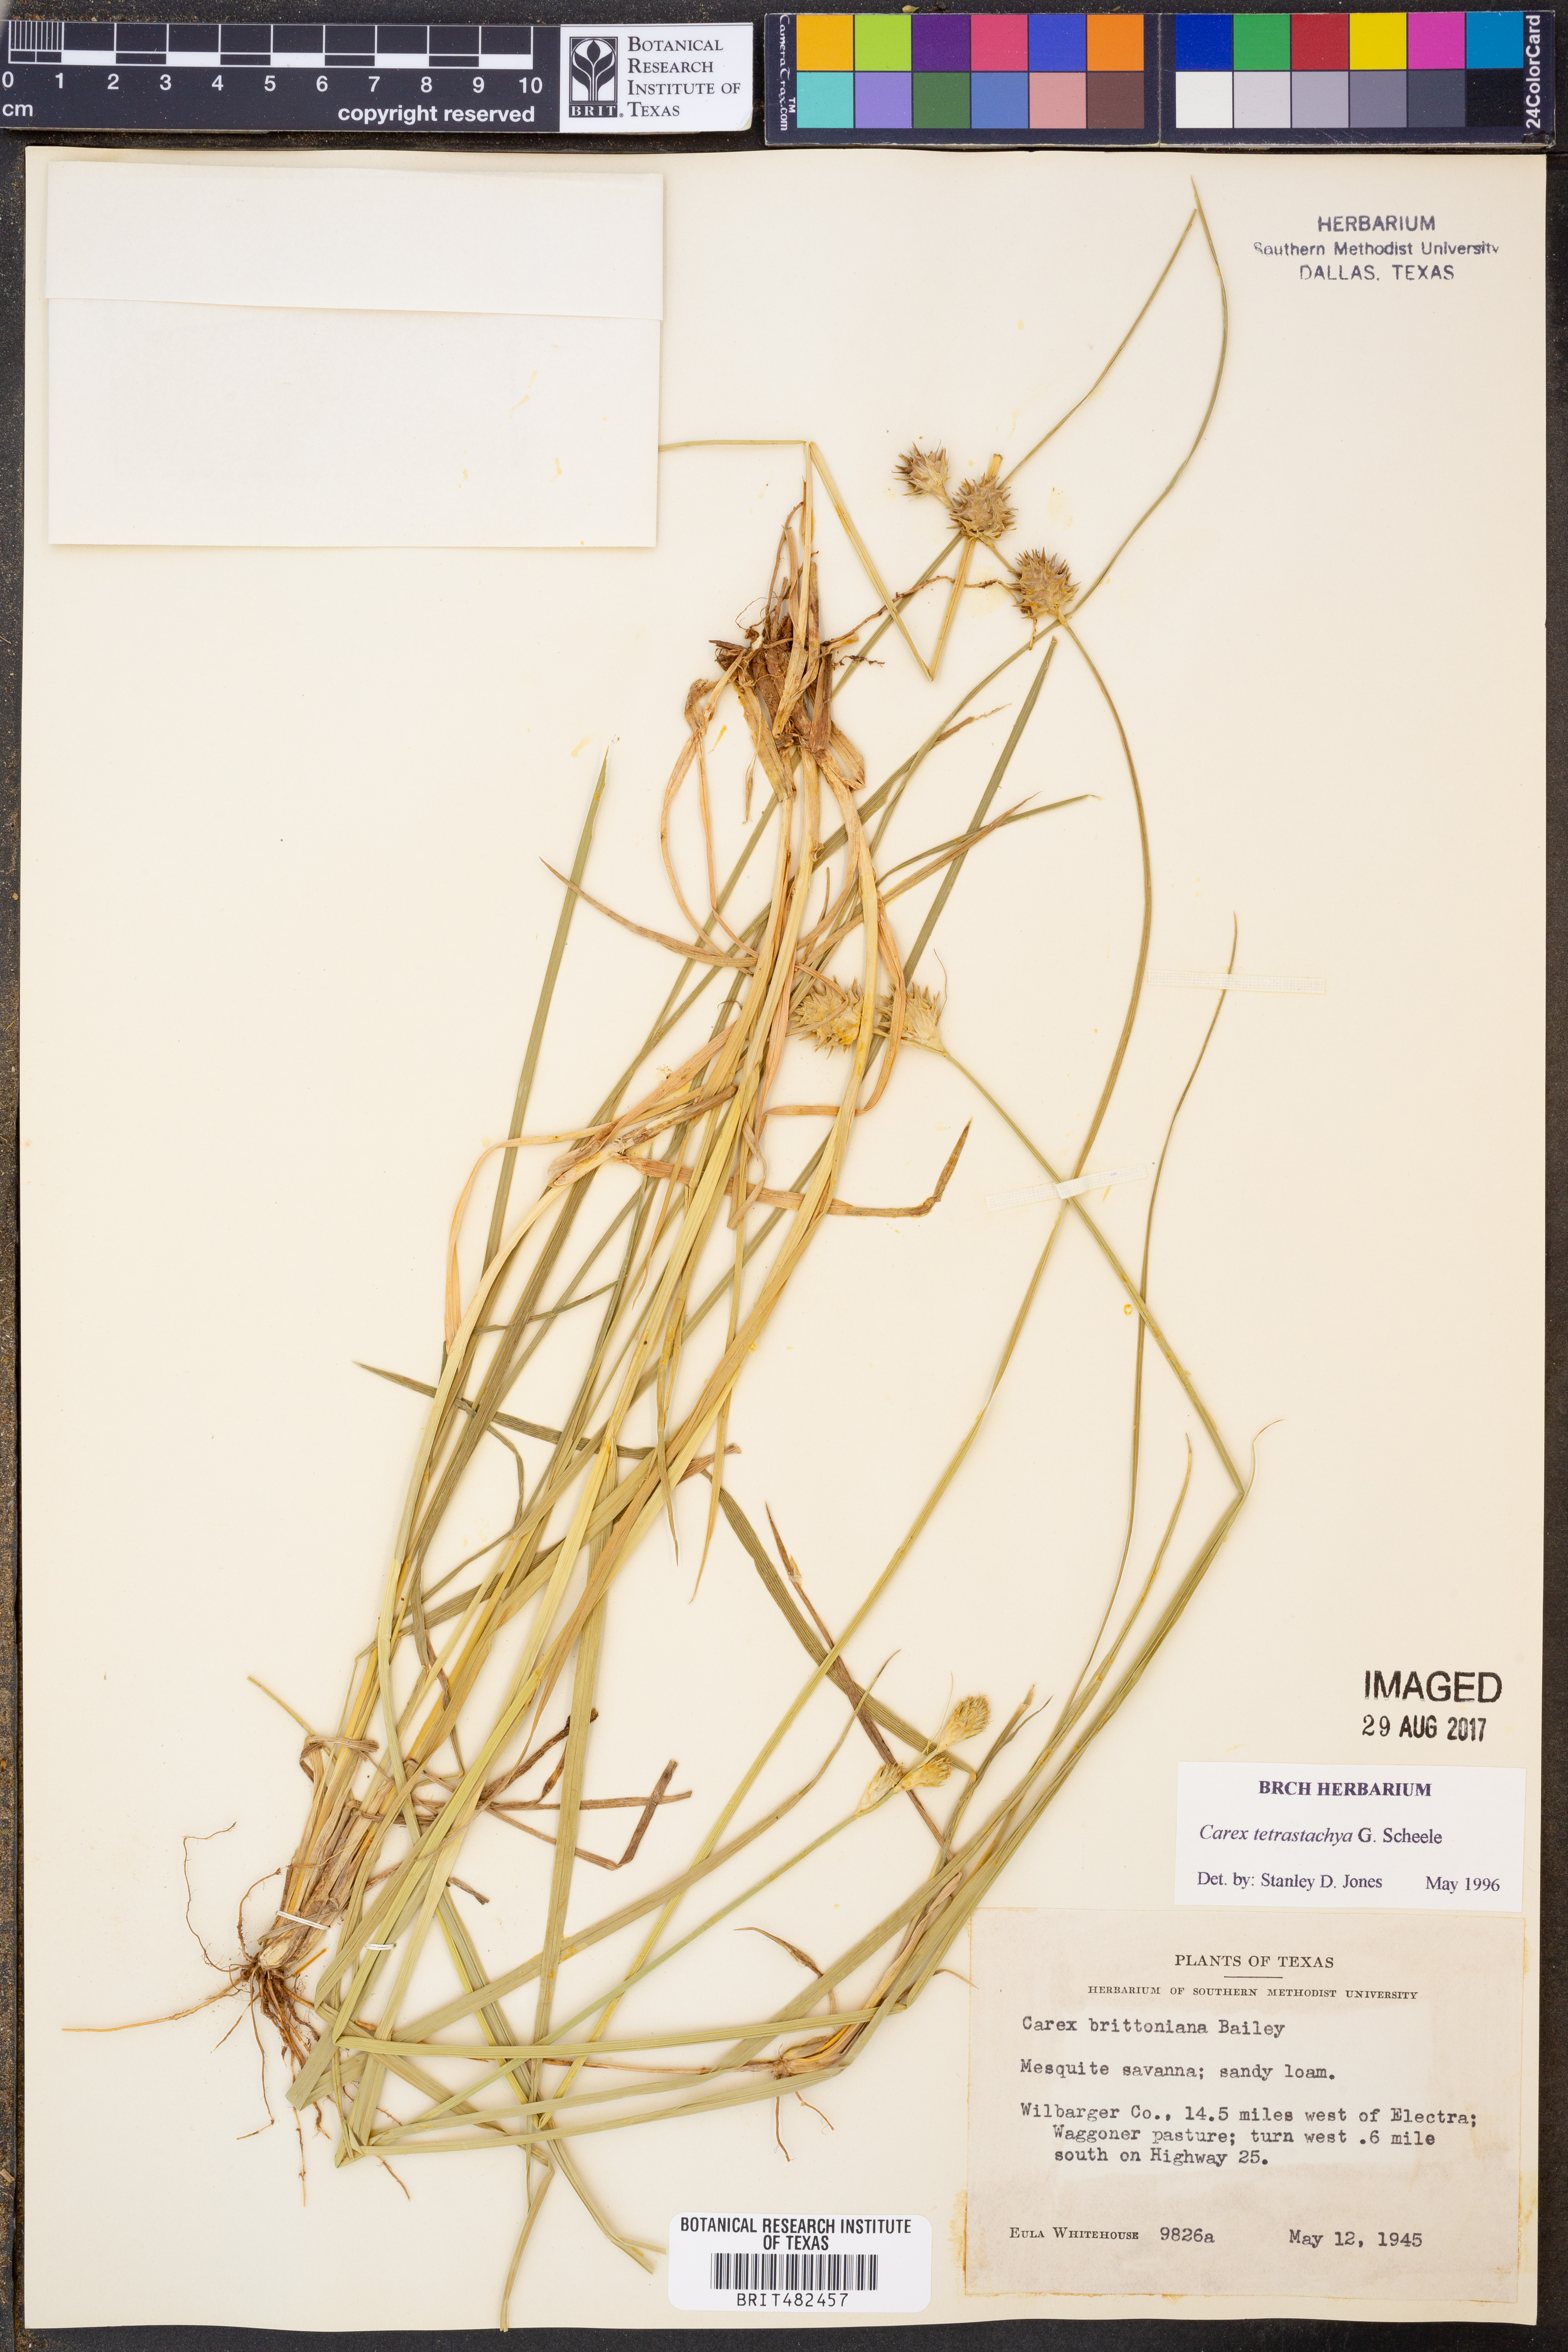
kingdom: Plantae
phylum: Tracheophyta
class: Liliopsida
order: Poales
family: Cyperaceae
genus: Carex
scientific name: Carex tetrastachya
